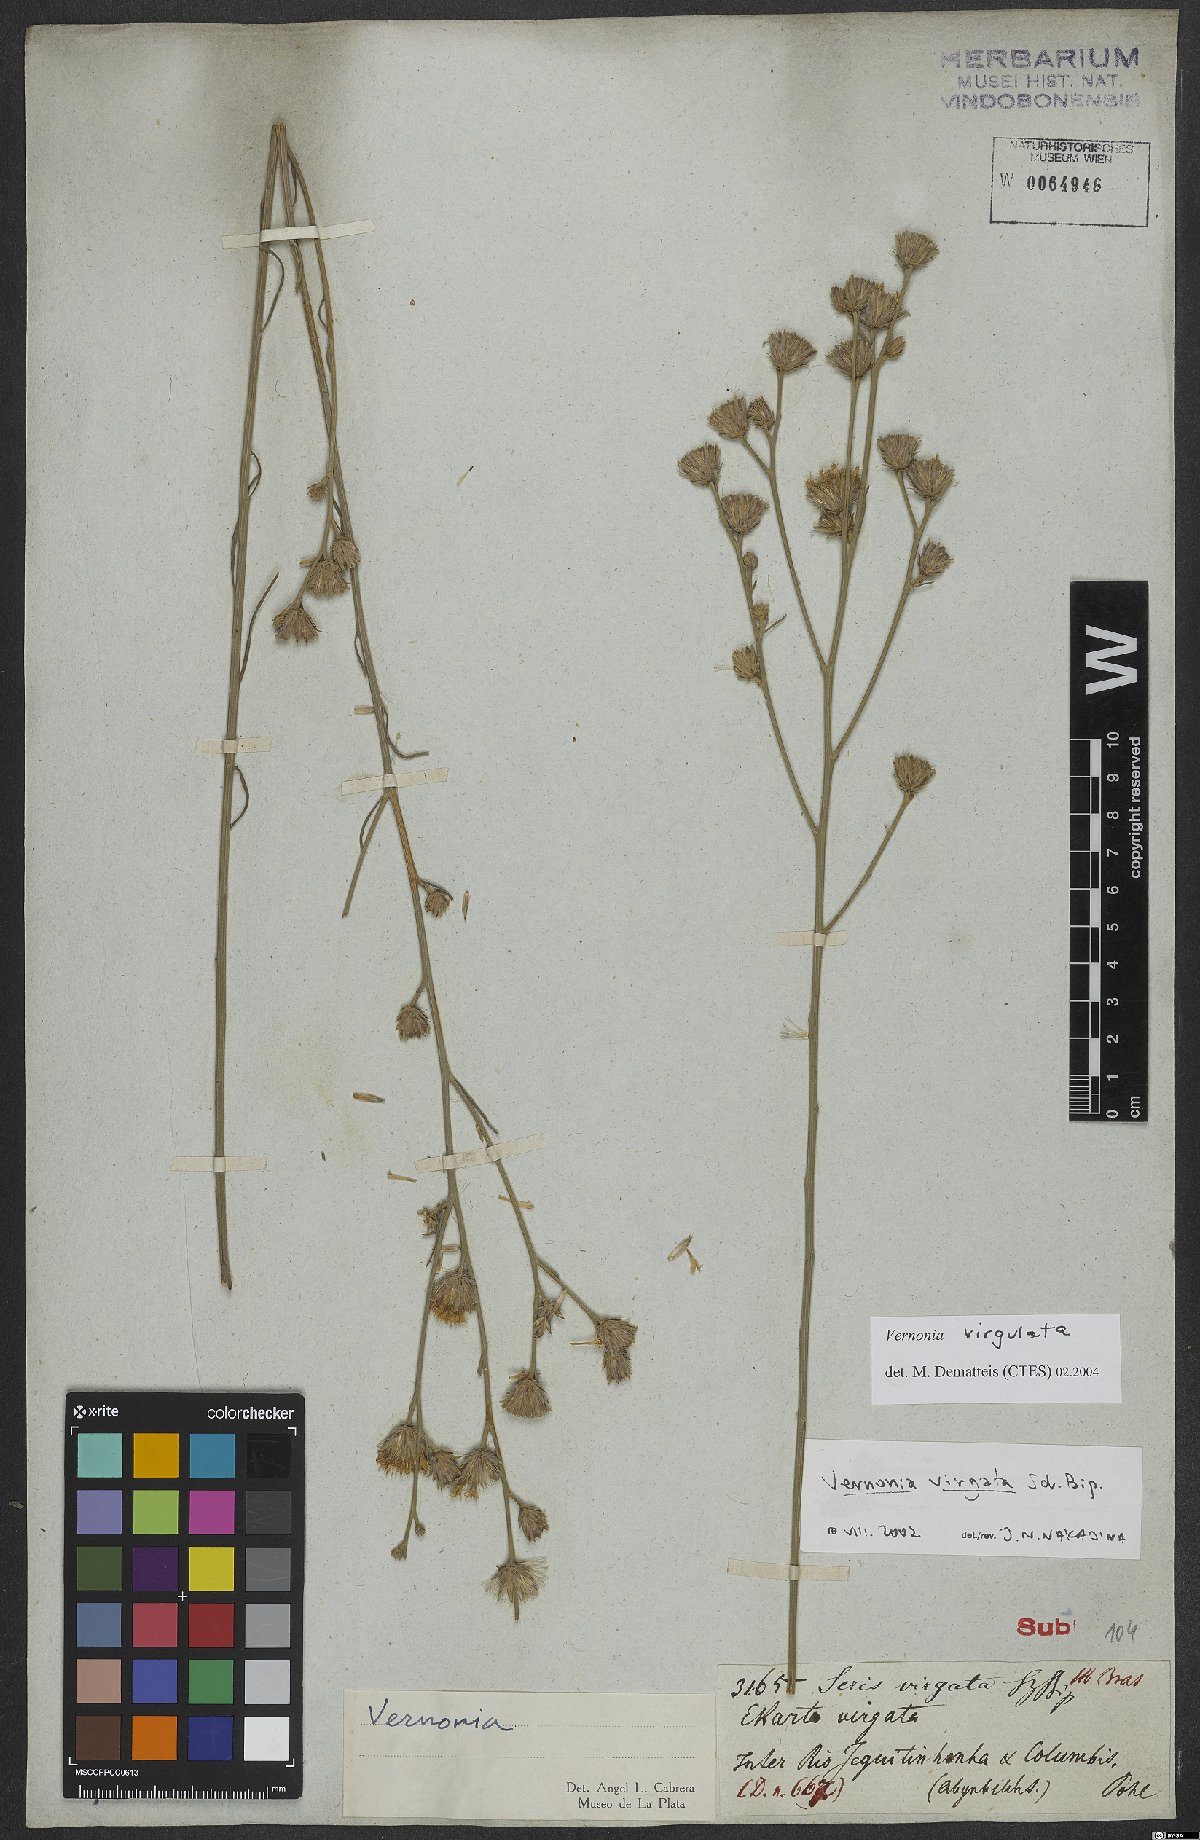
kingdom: Plantae
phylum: Tracheophyta
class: Magnoliopsida
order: Asterales
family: Asteraceae
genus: Lessingianthus
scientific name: Lessingianthus virgulatus
